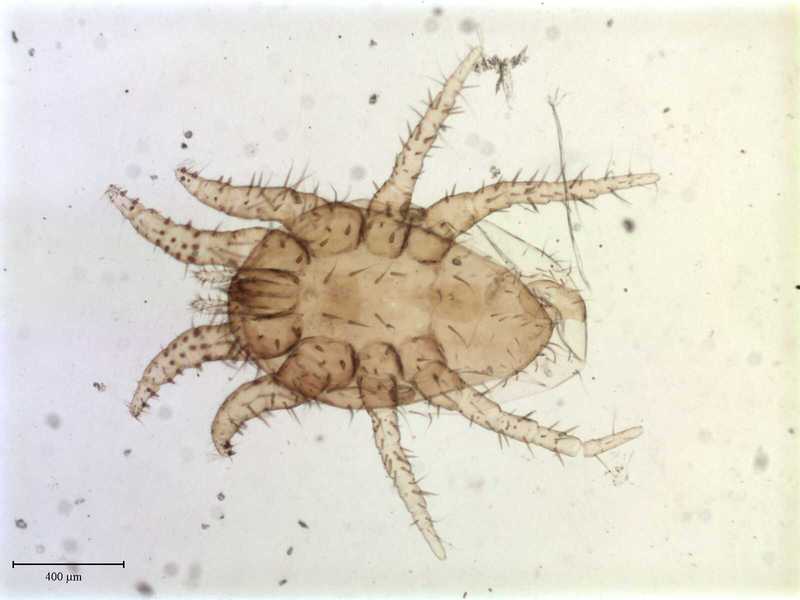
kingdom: Animalia
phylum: Arthropoda
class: Arachnida
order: Mesostigmata
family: Laelapidae
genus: Dinogamasus
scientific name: Dinogamasus
